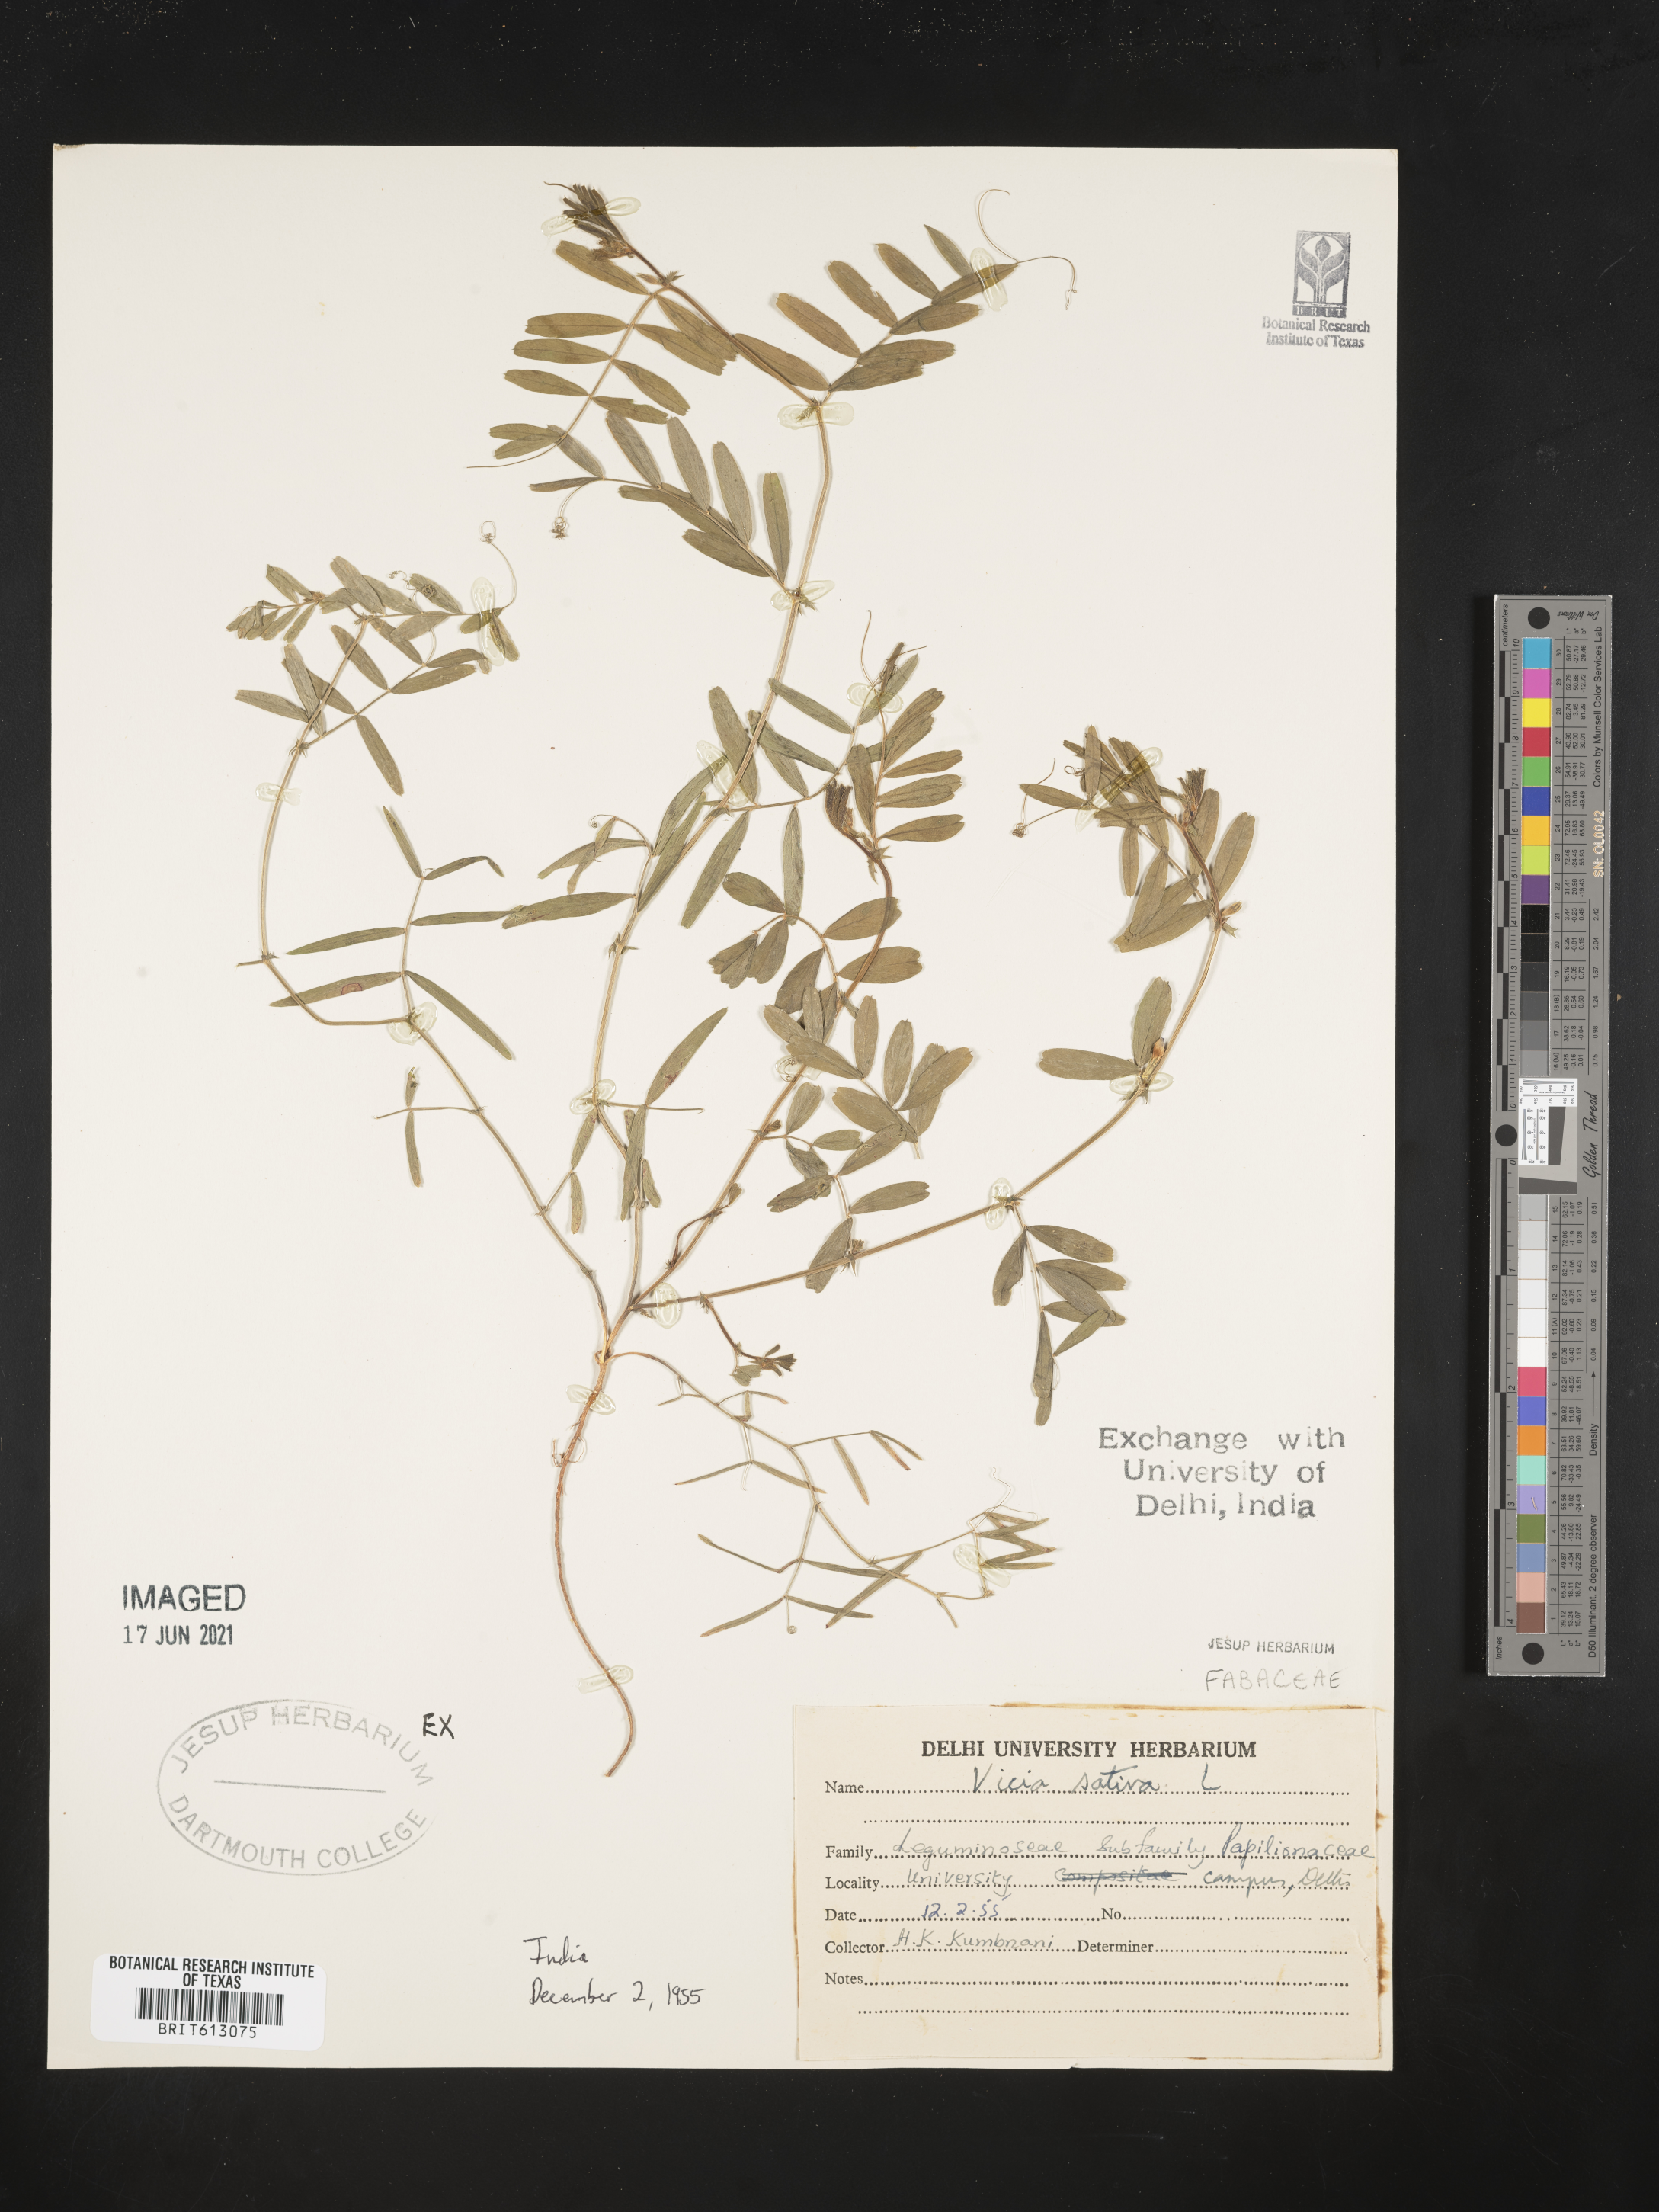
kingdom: Plantae
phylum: Tracheophyta
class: Magnoliopsida
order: Fabales
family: Fabaceae
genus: Vicia
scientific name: Vicia sativa
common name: Garden vetch
